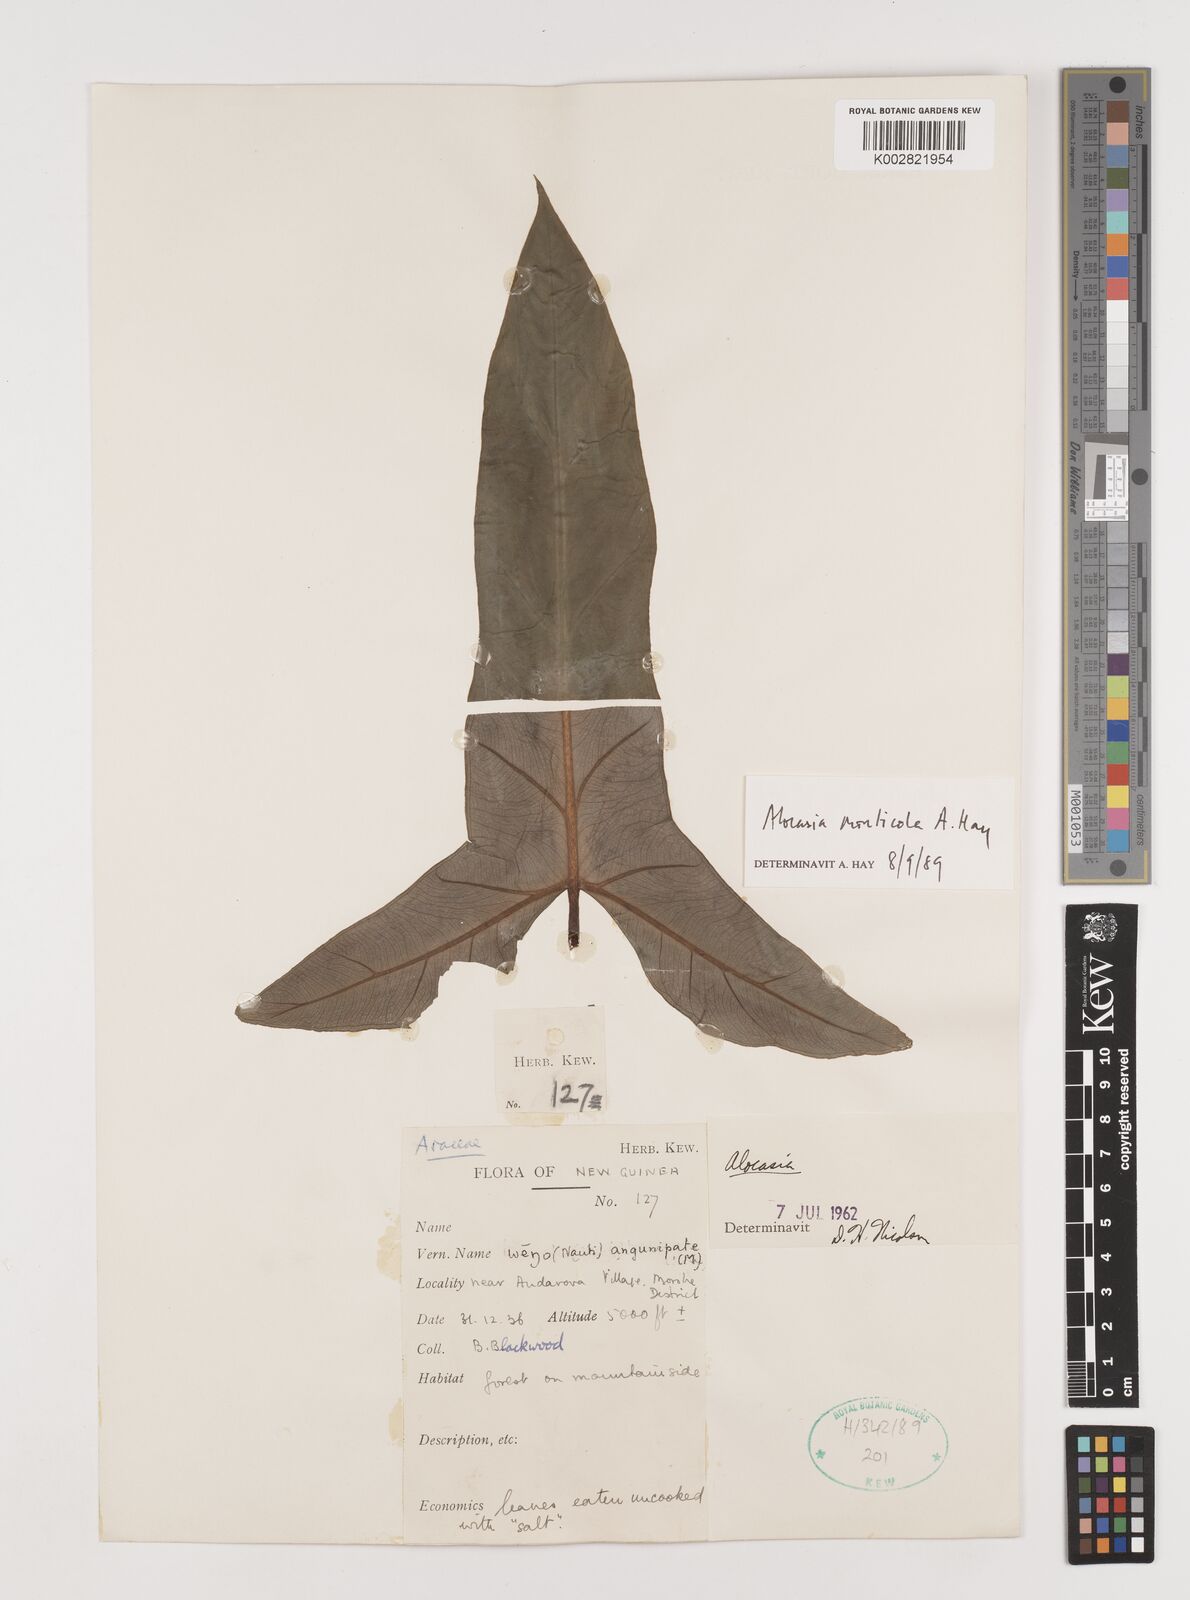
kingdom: Plantae
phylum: Tracheophyta
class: Liliopsida
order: Alismatales
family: Araceae
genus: Alocasia
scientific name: Alocasia monticola
